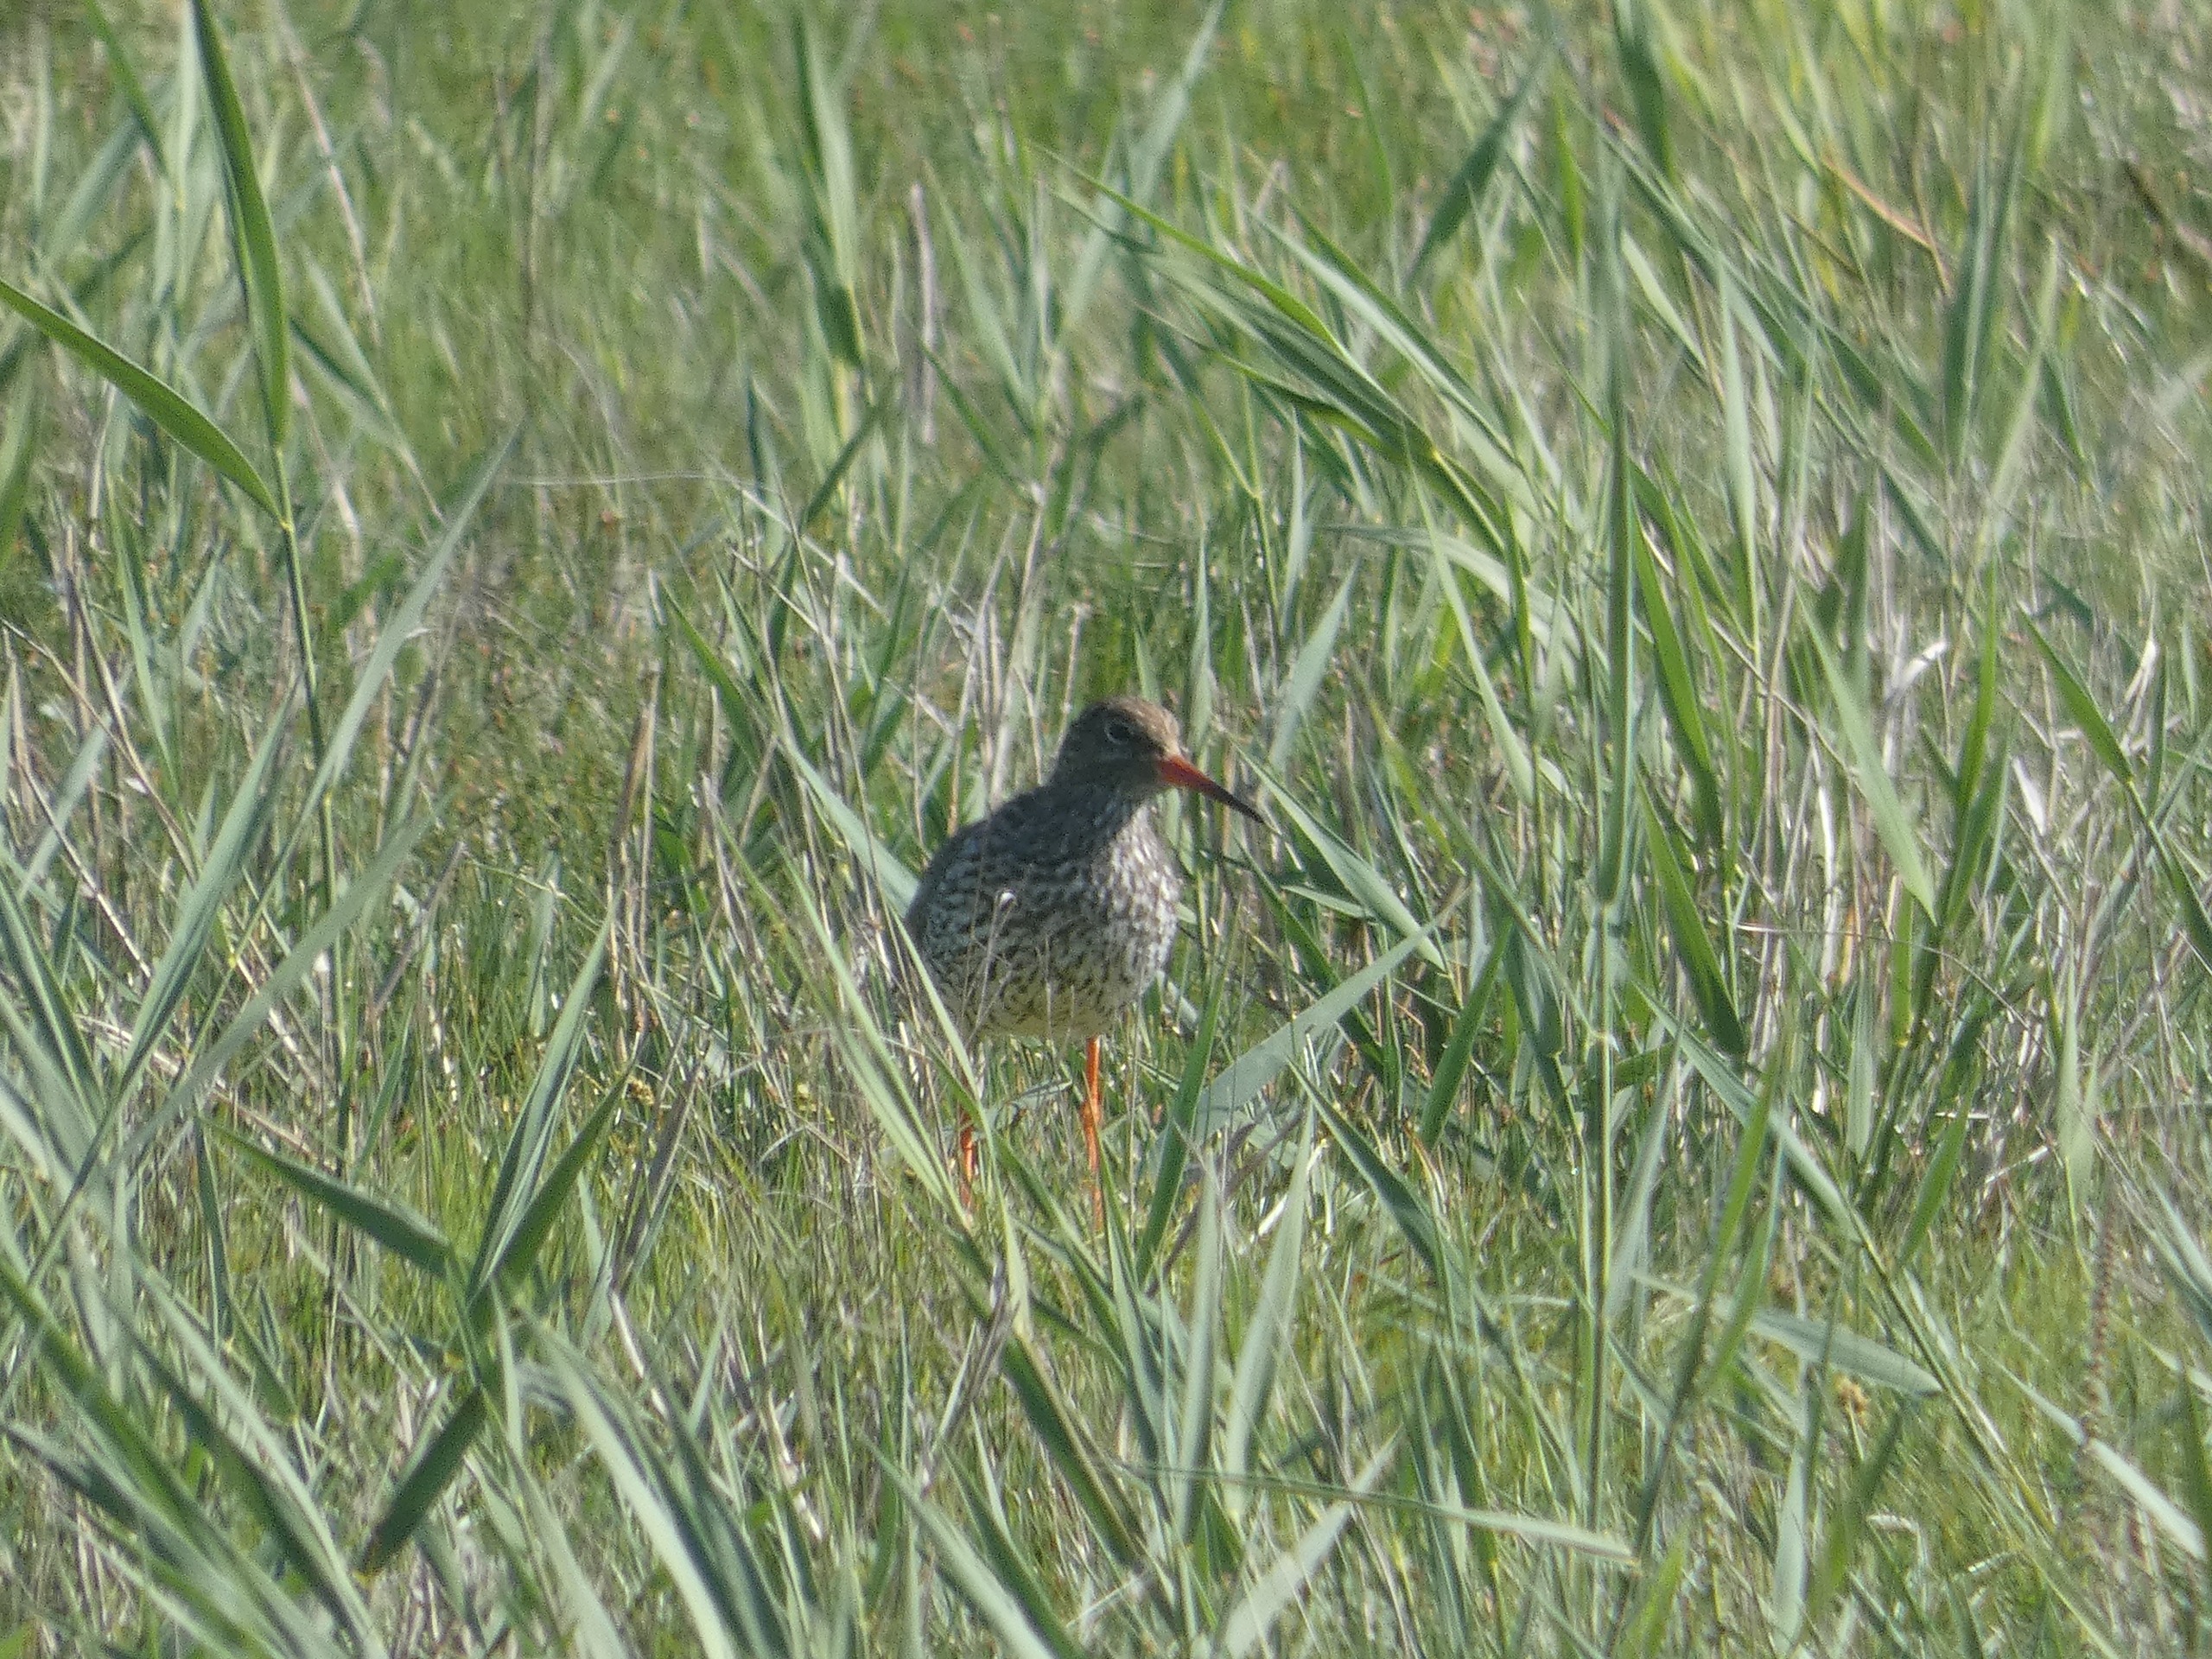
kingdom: Animalia
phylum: Chordata
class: Aves
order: Charadriiformes
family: Scolopacidae
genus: Tringa
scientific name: Tringa totanus
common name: Rødben
